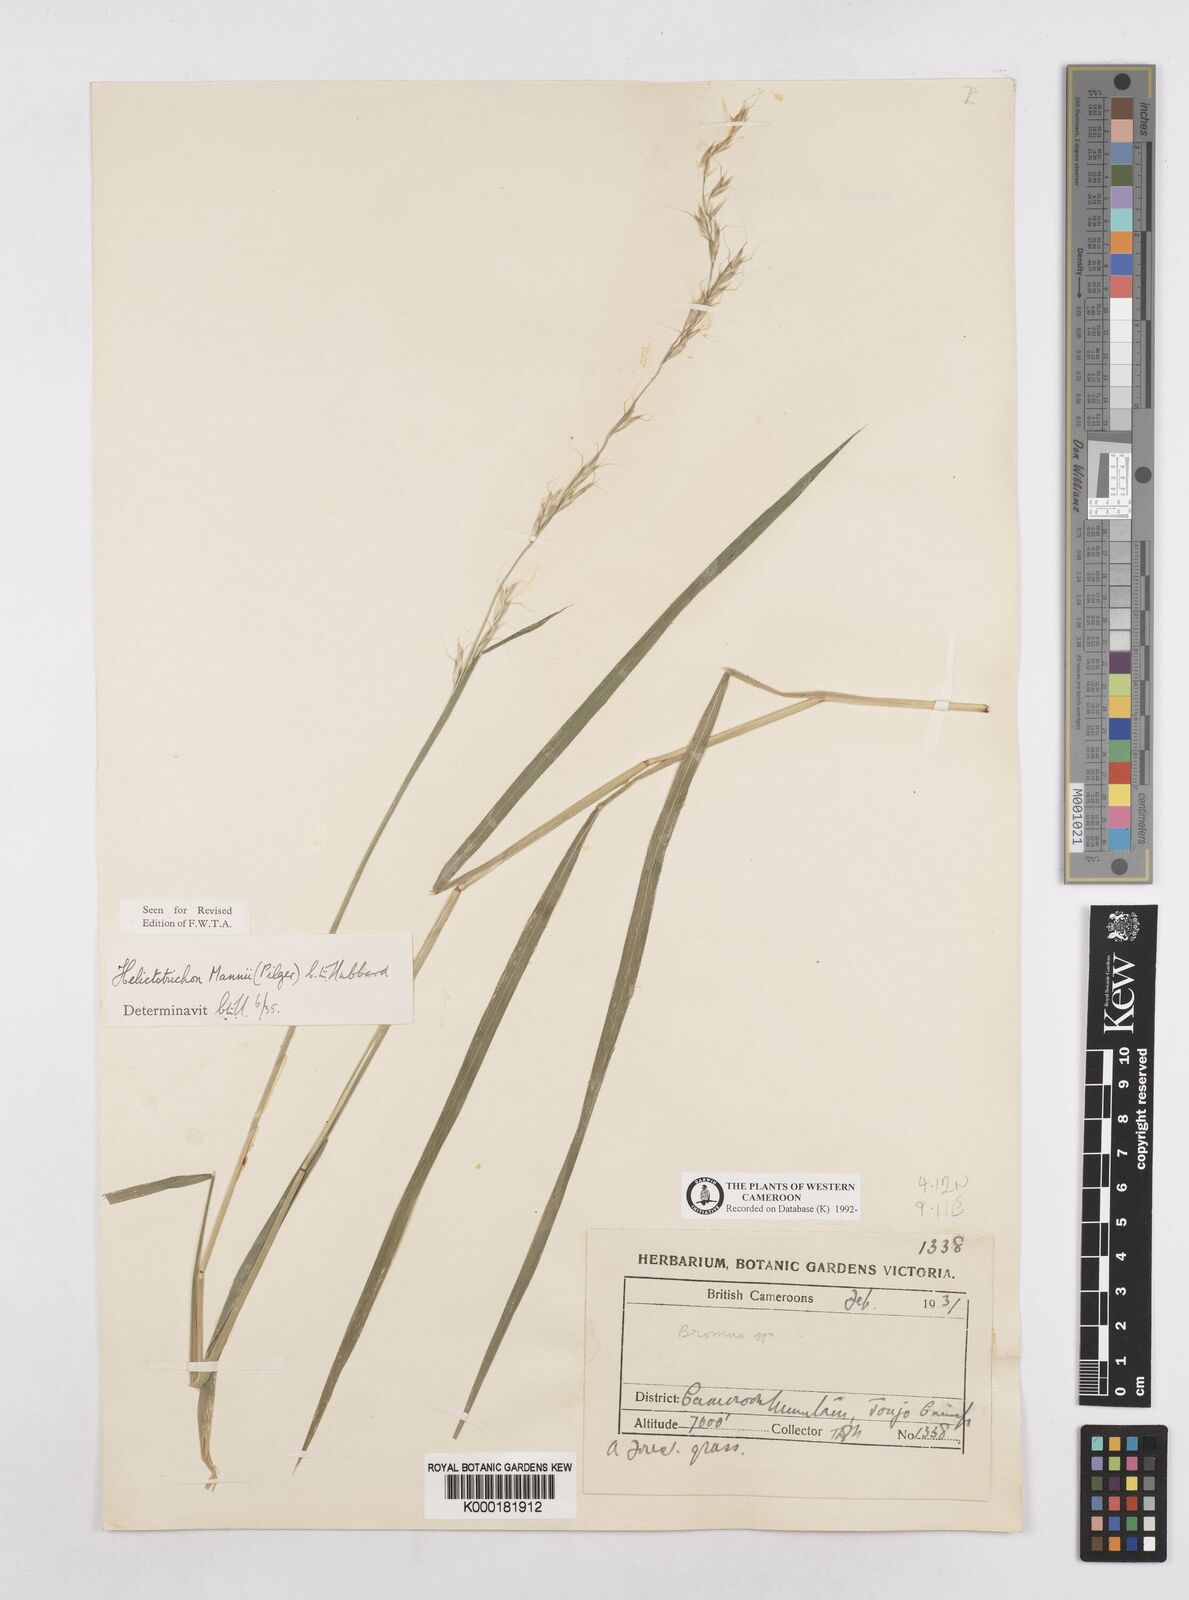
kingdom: Plantae
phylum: Tracheophyta
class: Liliopsida
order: Poales
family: Poaceae
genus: Trisetopsis
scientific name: Trisetopsis mannii
